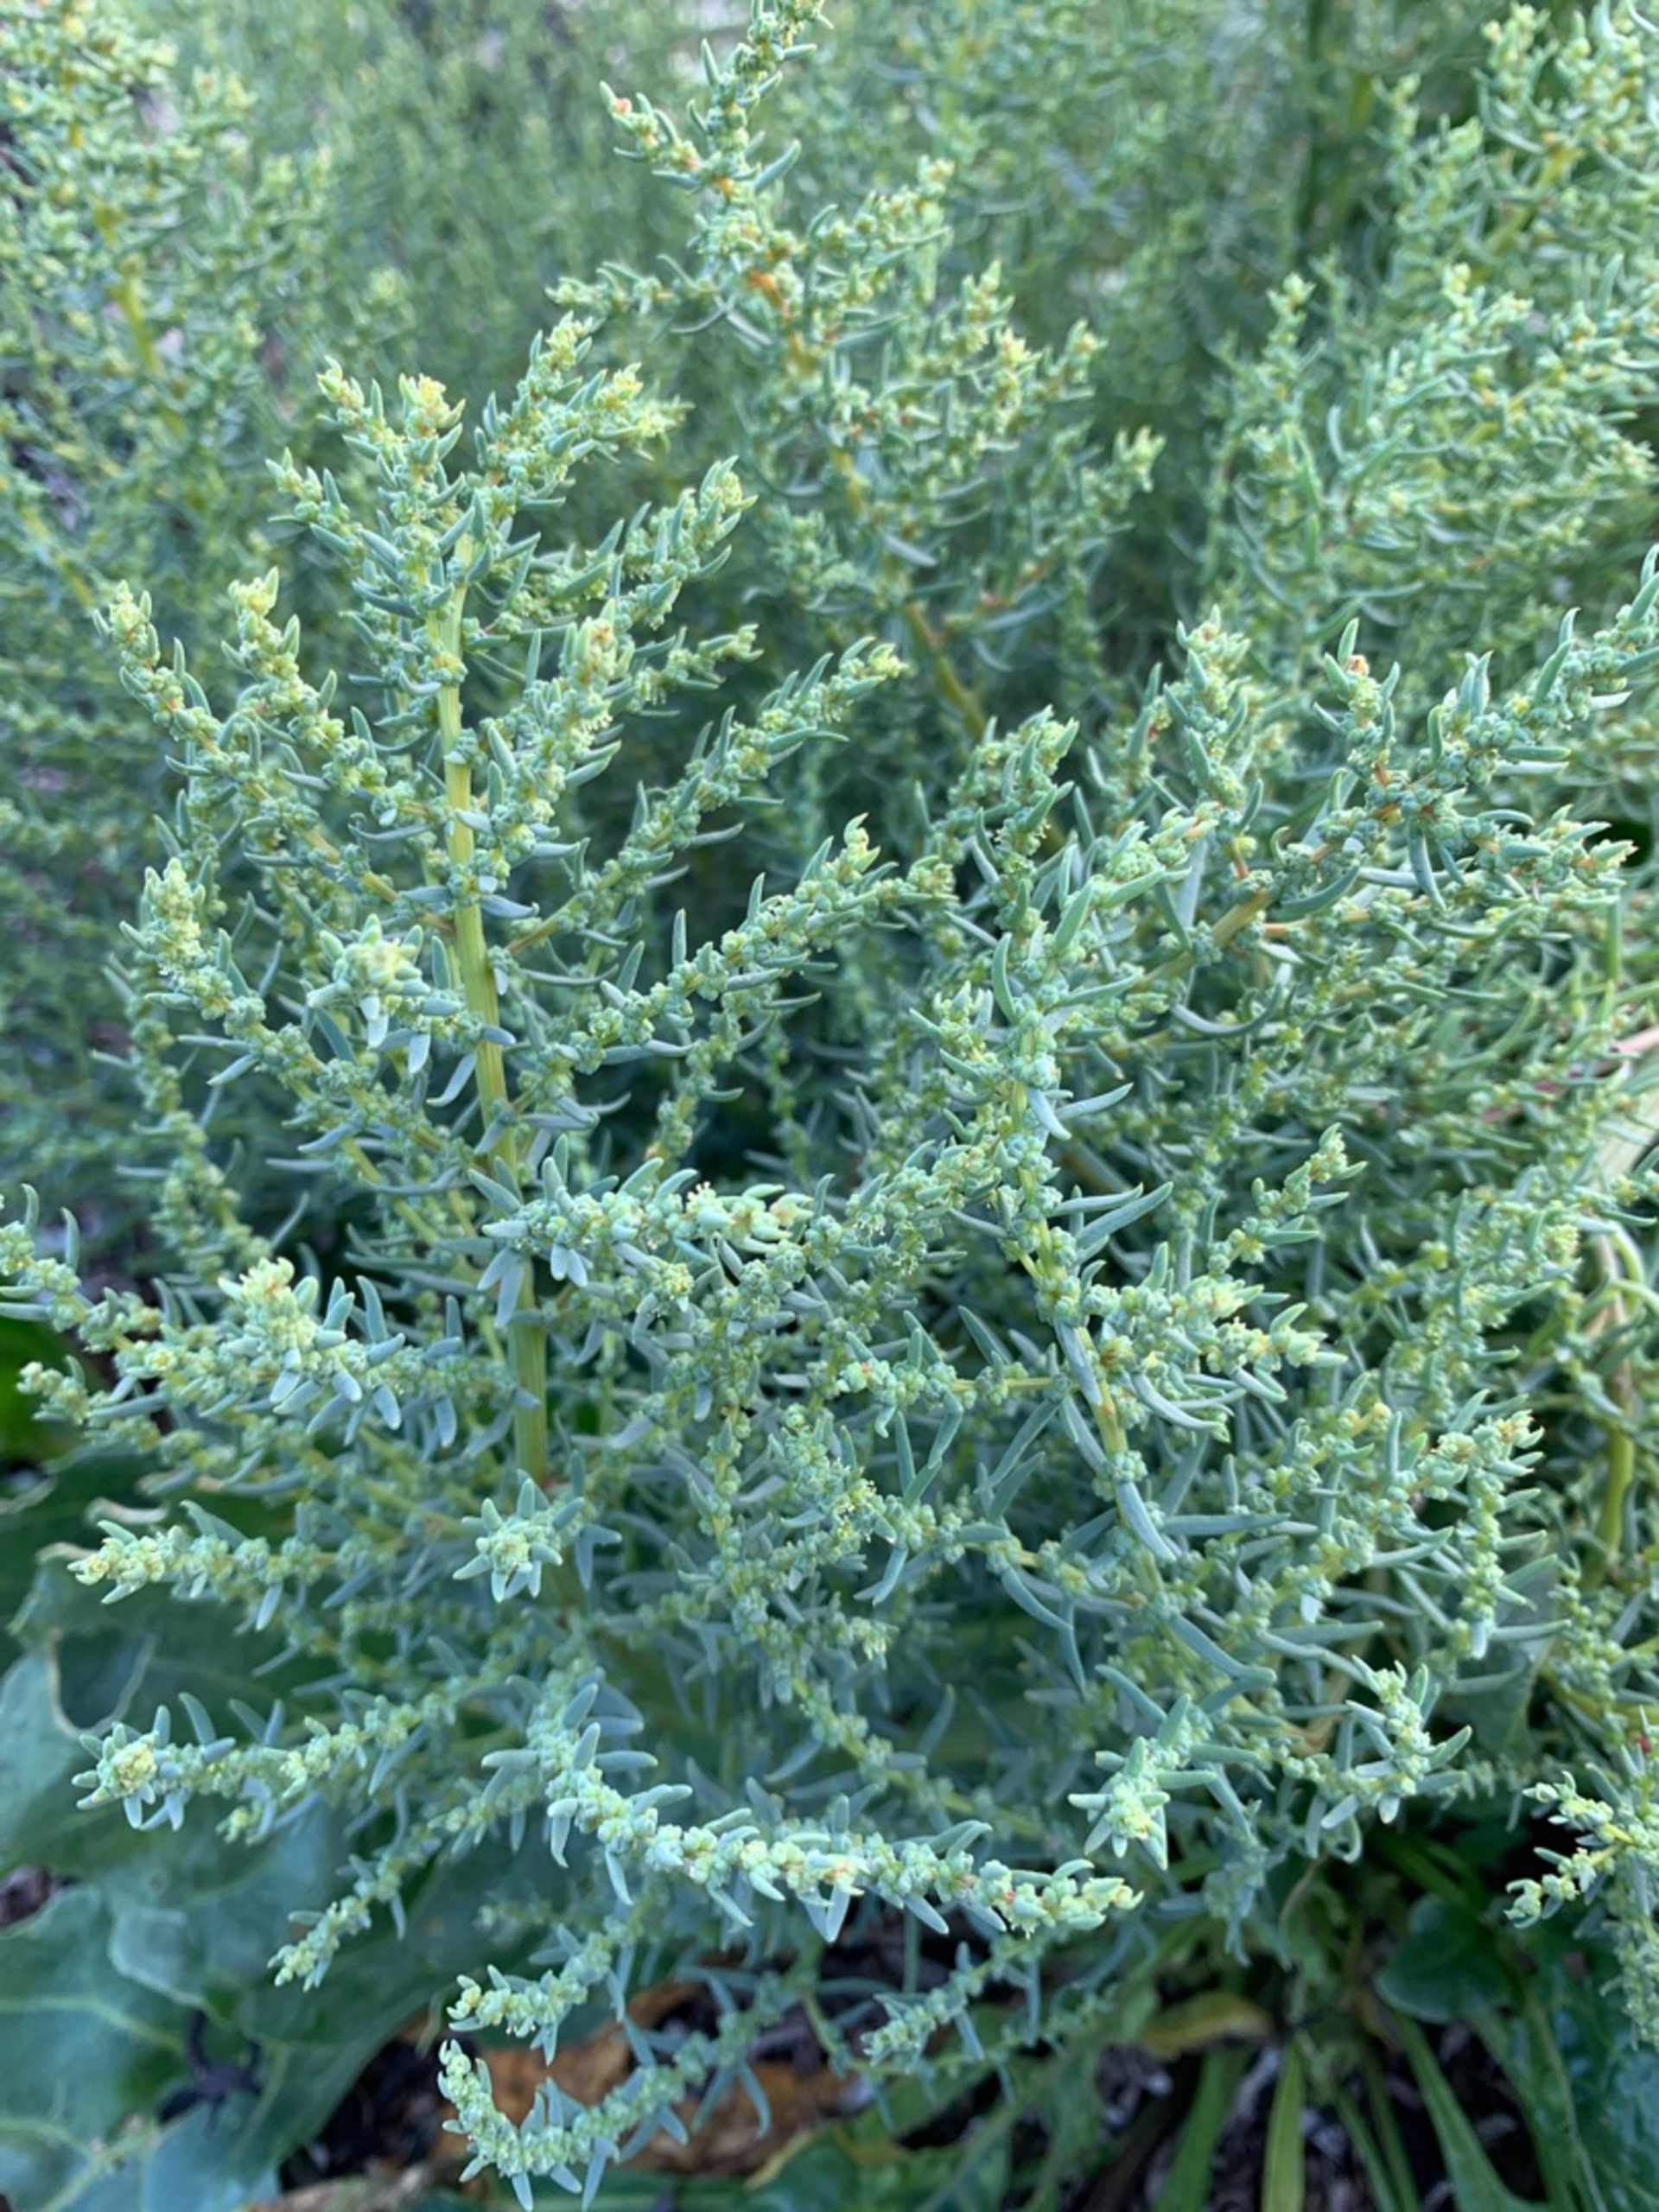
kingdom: Plantae
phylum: Tracheophyta
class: Magnoliopsida
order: Caryophyllales
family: Amaranthaceae
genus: Suaeda
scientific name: Suaeda maritima
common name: Strandgåsefod
